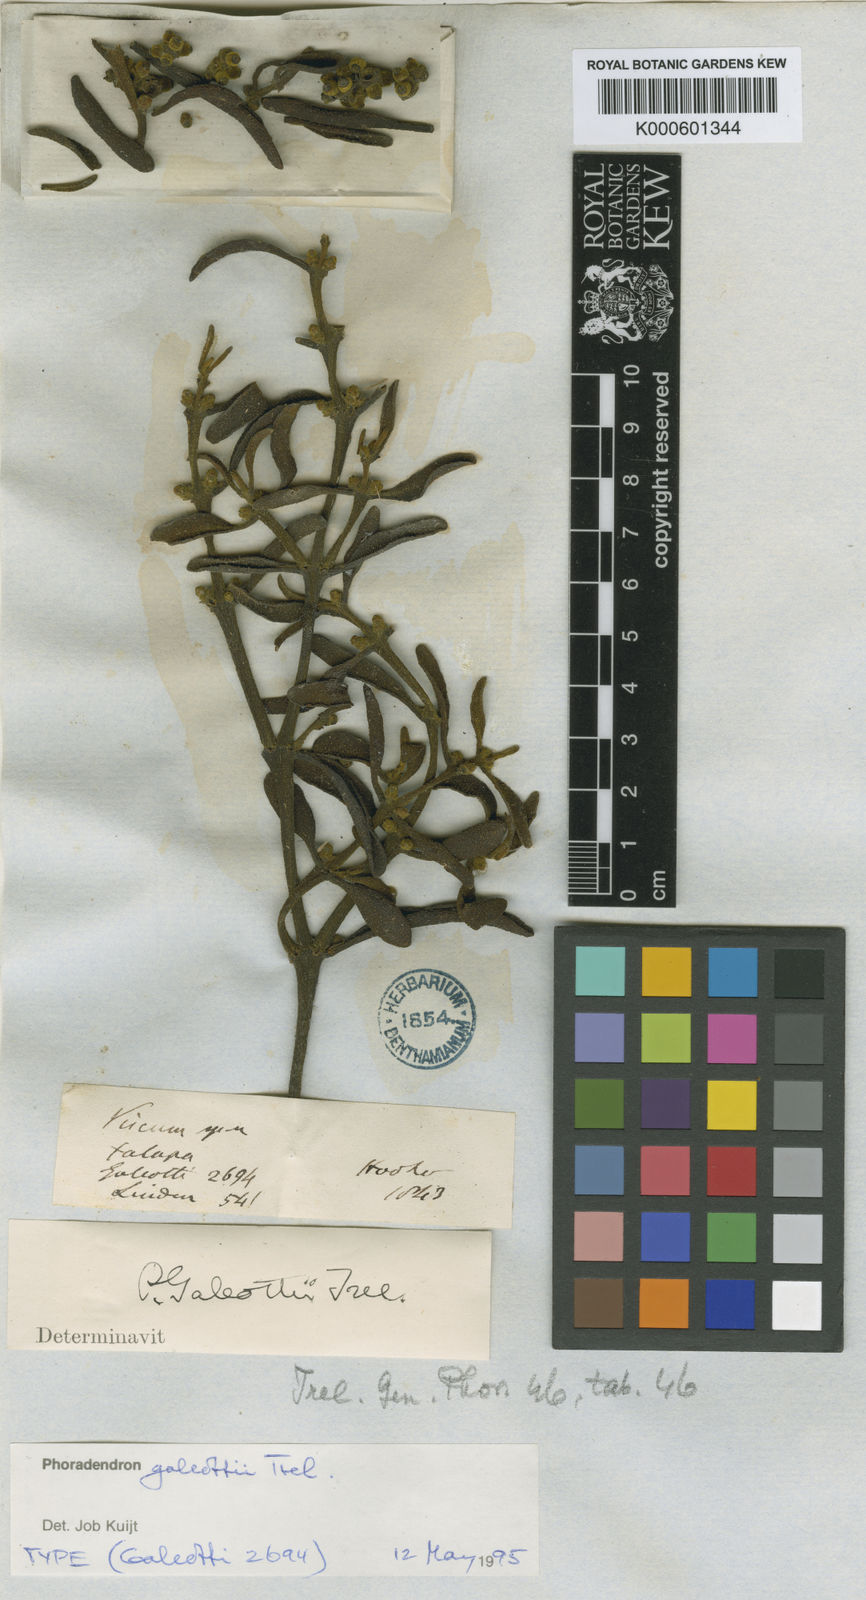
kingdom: Plantae
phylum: Tracheophyta
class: Magnoliopsida
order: Santalales
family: Viscaceae
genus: Phoradendron
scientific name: Phoradendron galeottii
